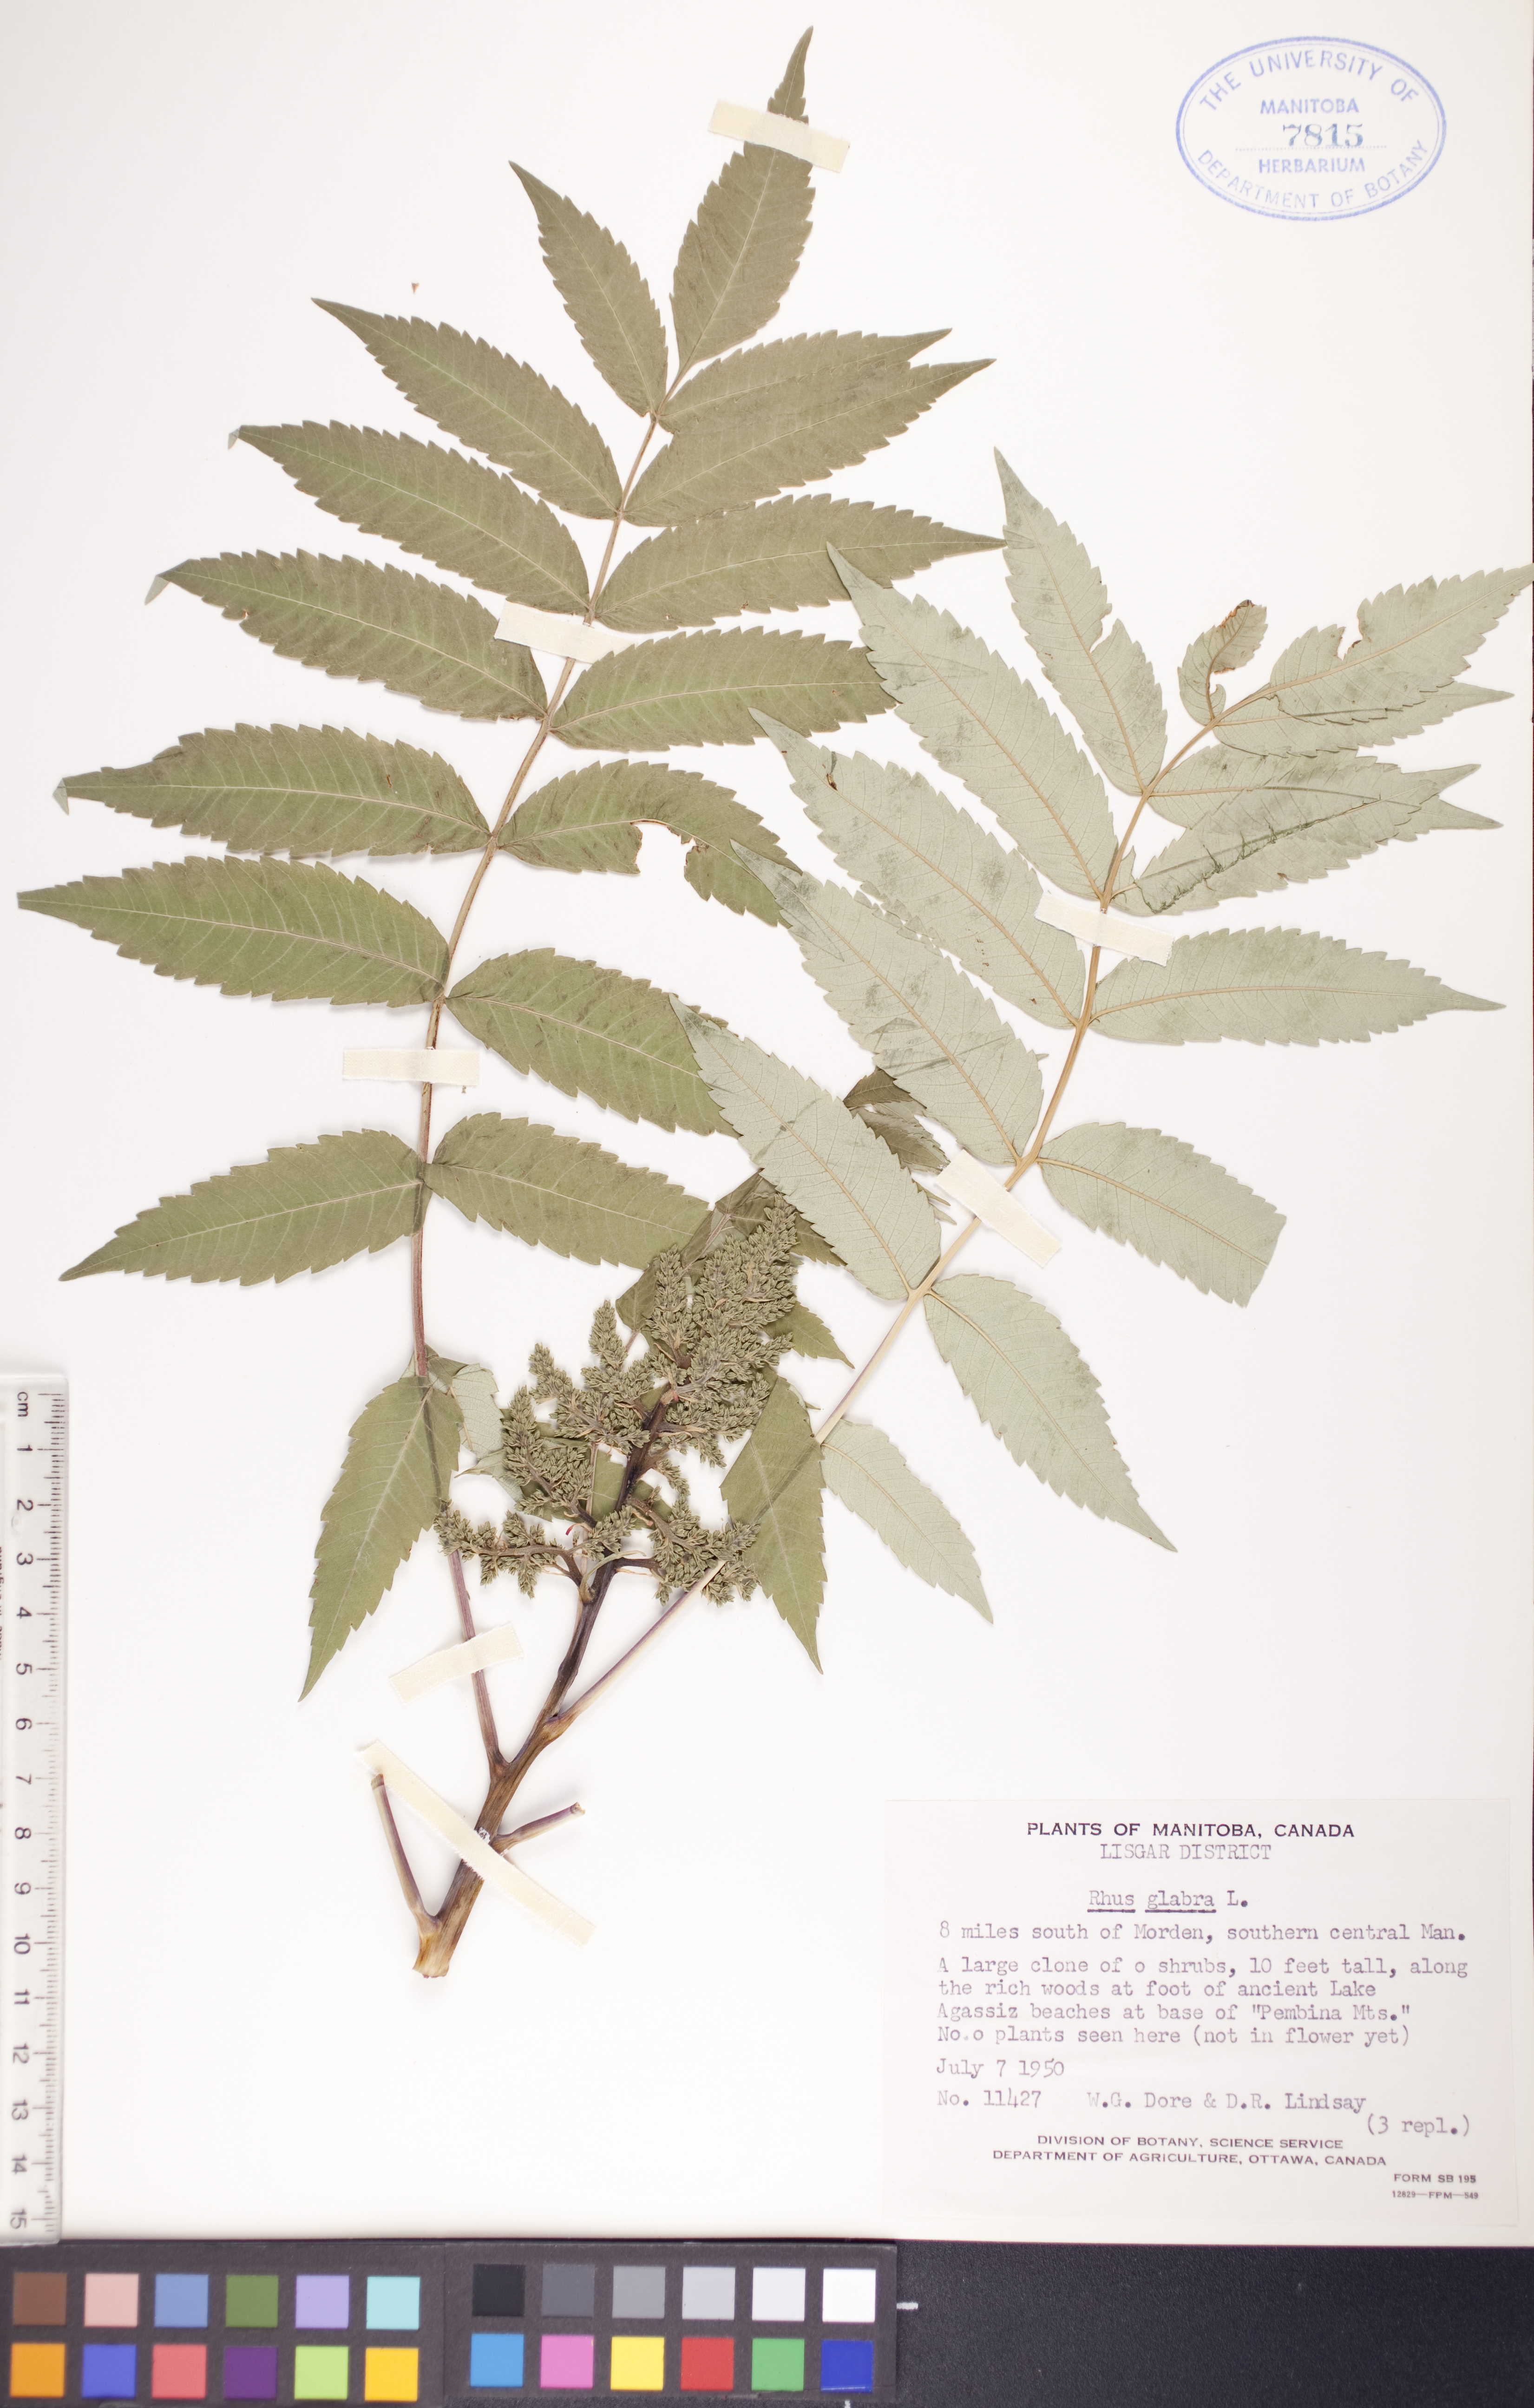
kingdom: Plantae
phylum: Tracheophyta
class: Magnoliopsida
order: Sapindales
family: Anacardiaceae
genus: Rhus
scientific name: Rhus glabra
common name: Scarlet sumac
